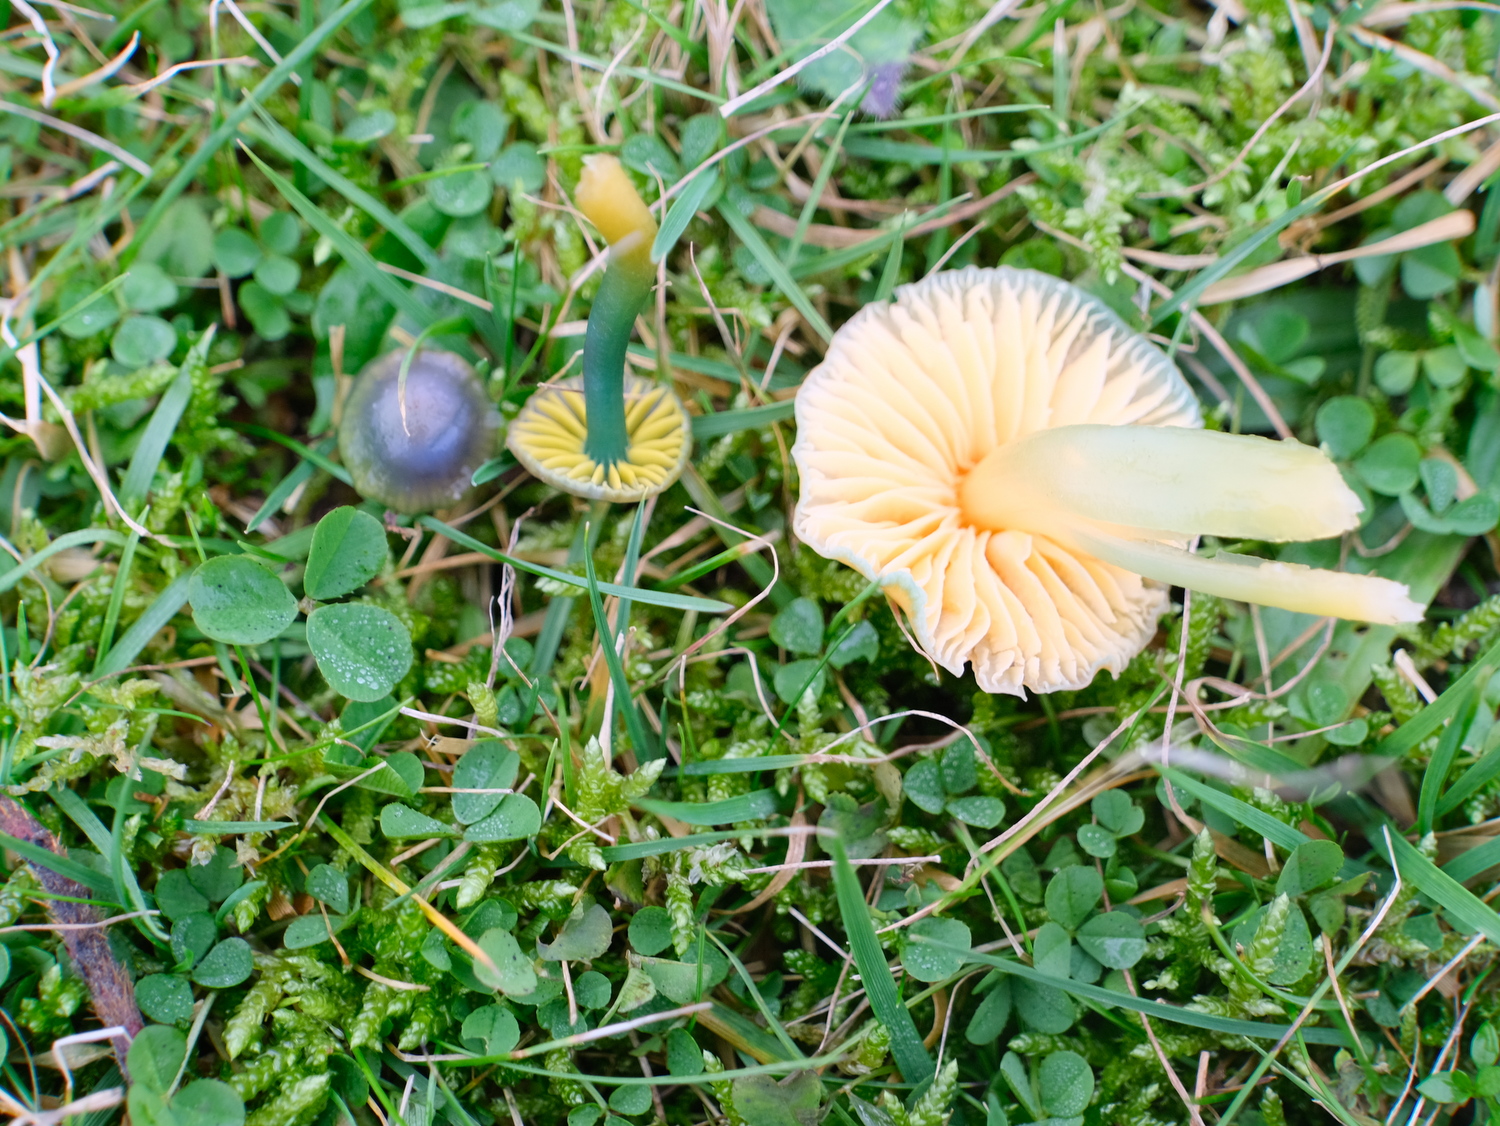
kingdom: Fungi
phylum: Basidiomycota
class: Agaricomycetes
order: Agaricales
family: Hygrophoraceae
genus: Gliophorus
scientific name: Gliophorus psittacinus
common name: papegøje-vokshat
